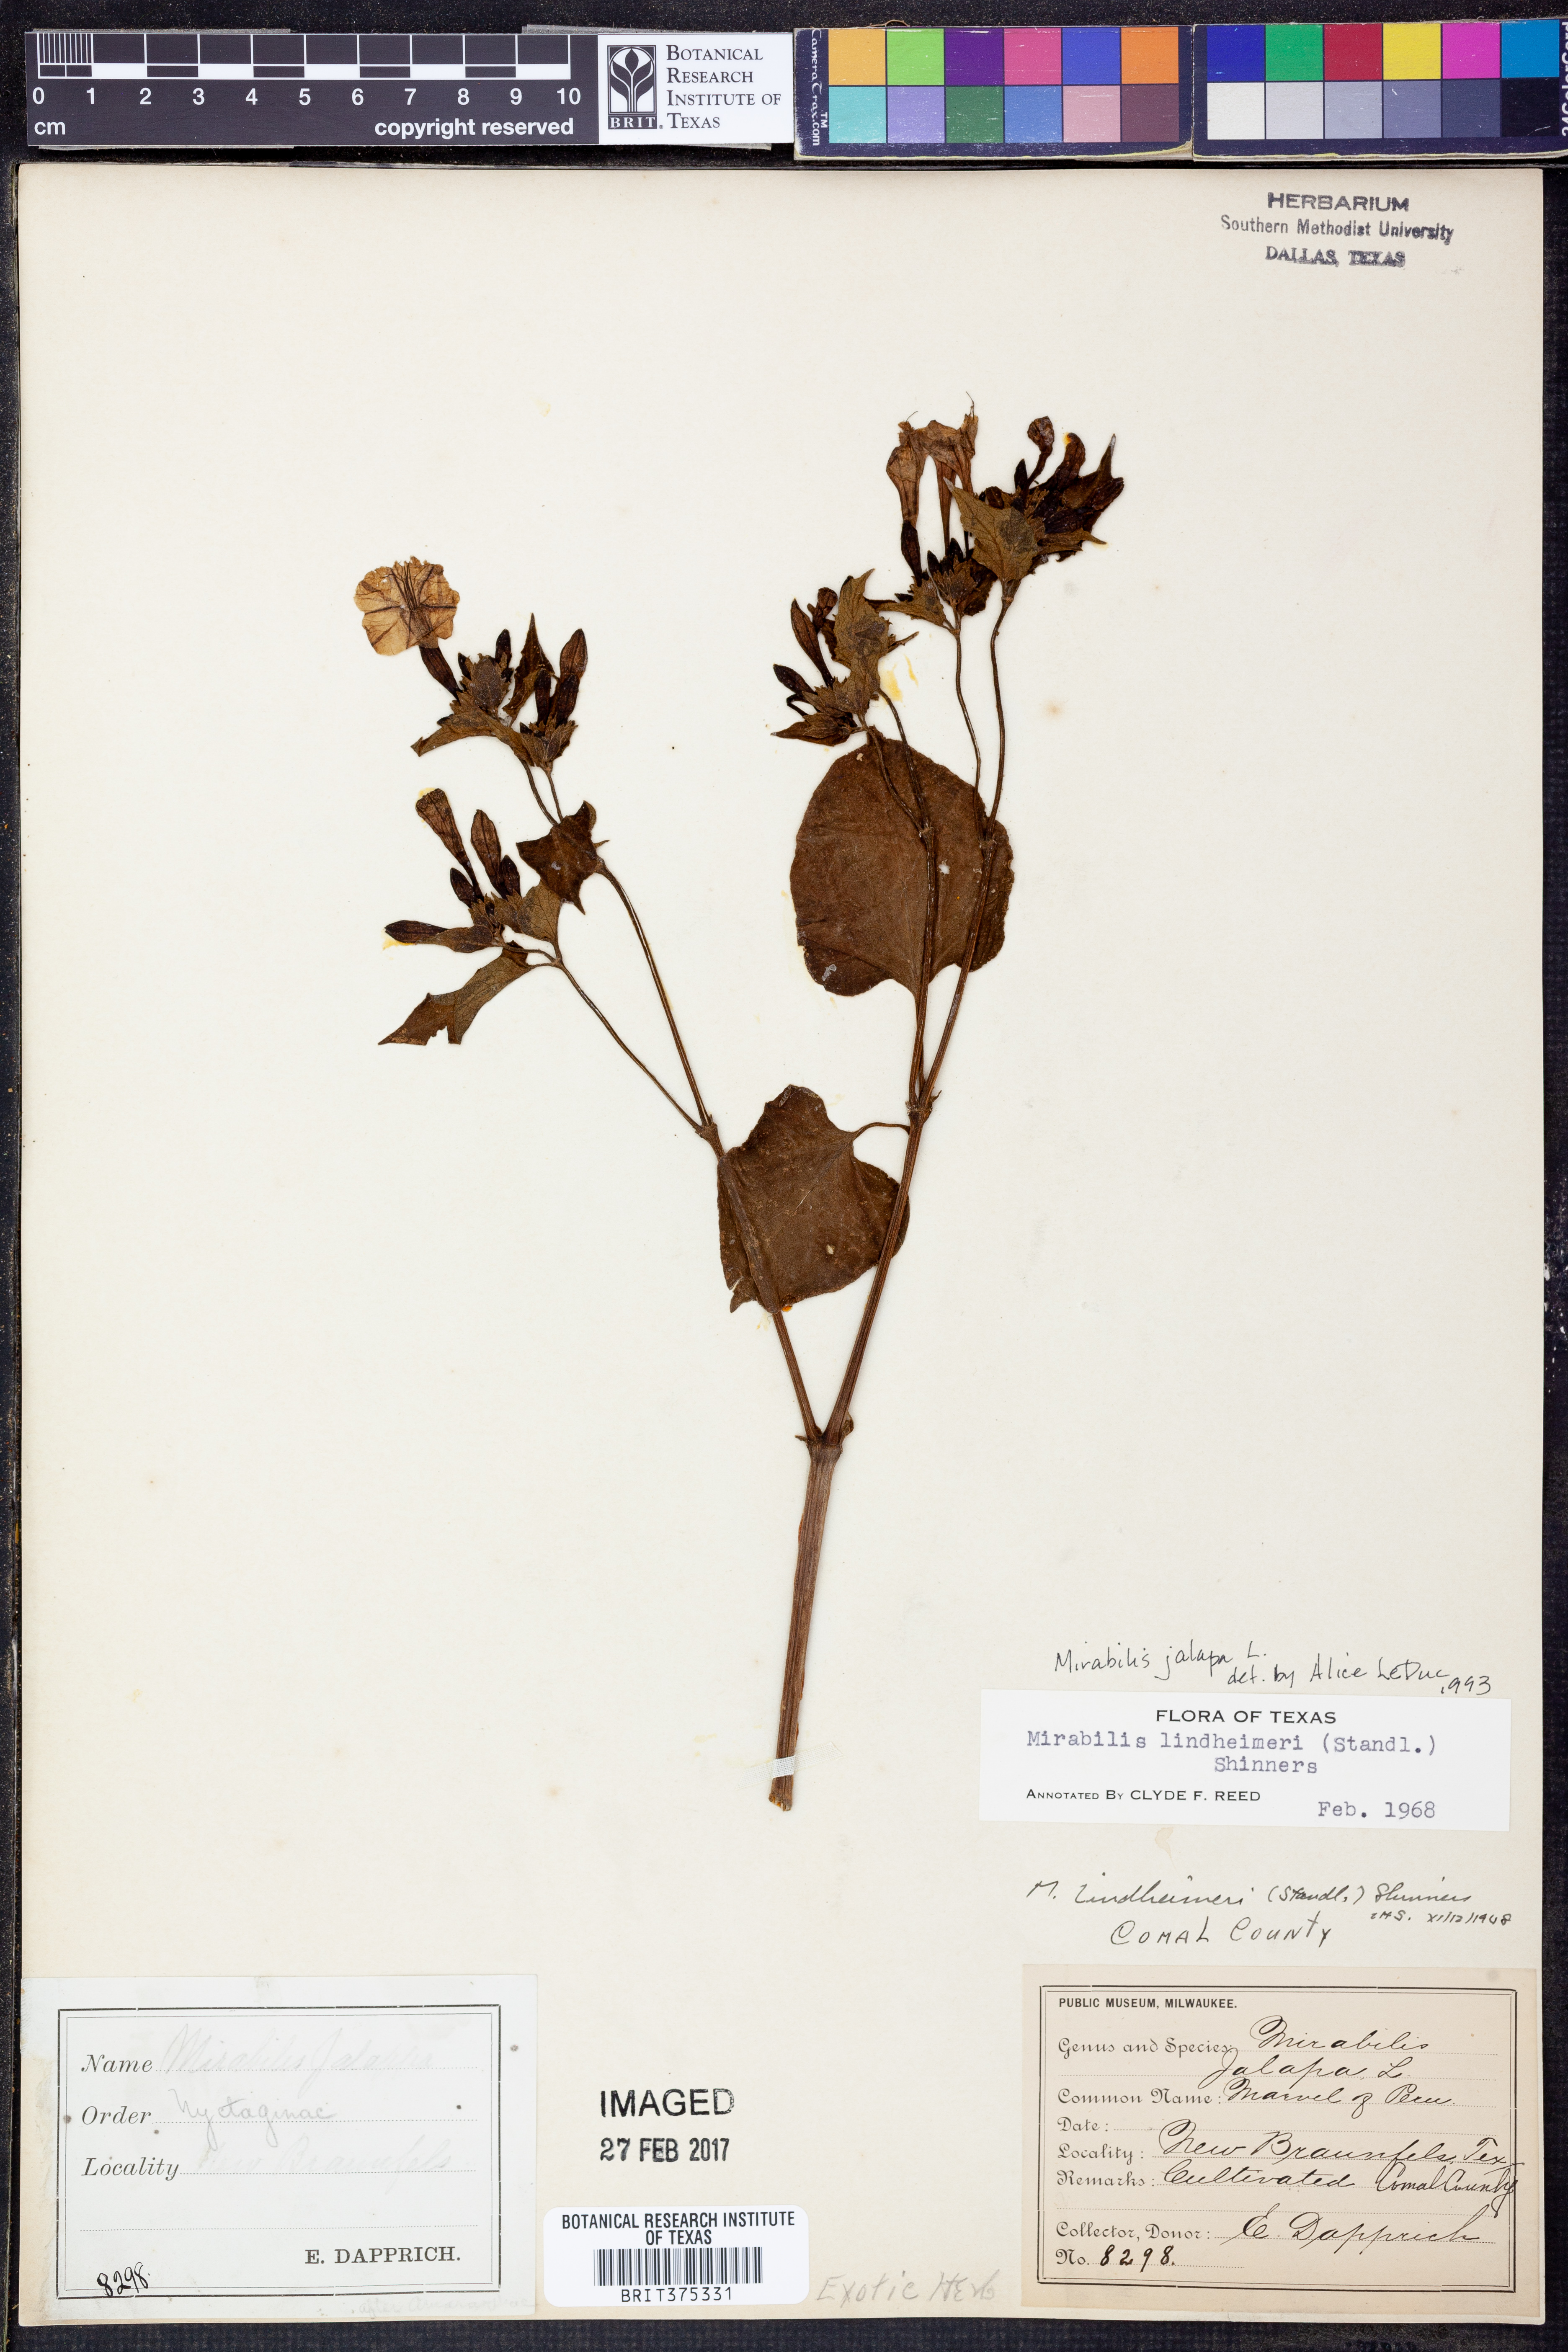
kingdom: Plantae
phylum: Tracheophyta
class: Magnoliopsida
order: Caryophyllales
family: Nyctaginaceae
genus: Mirabilis
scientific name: Mirabilis jalapa
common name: Marvel-of-peru
